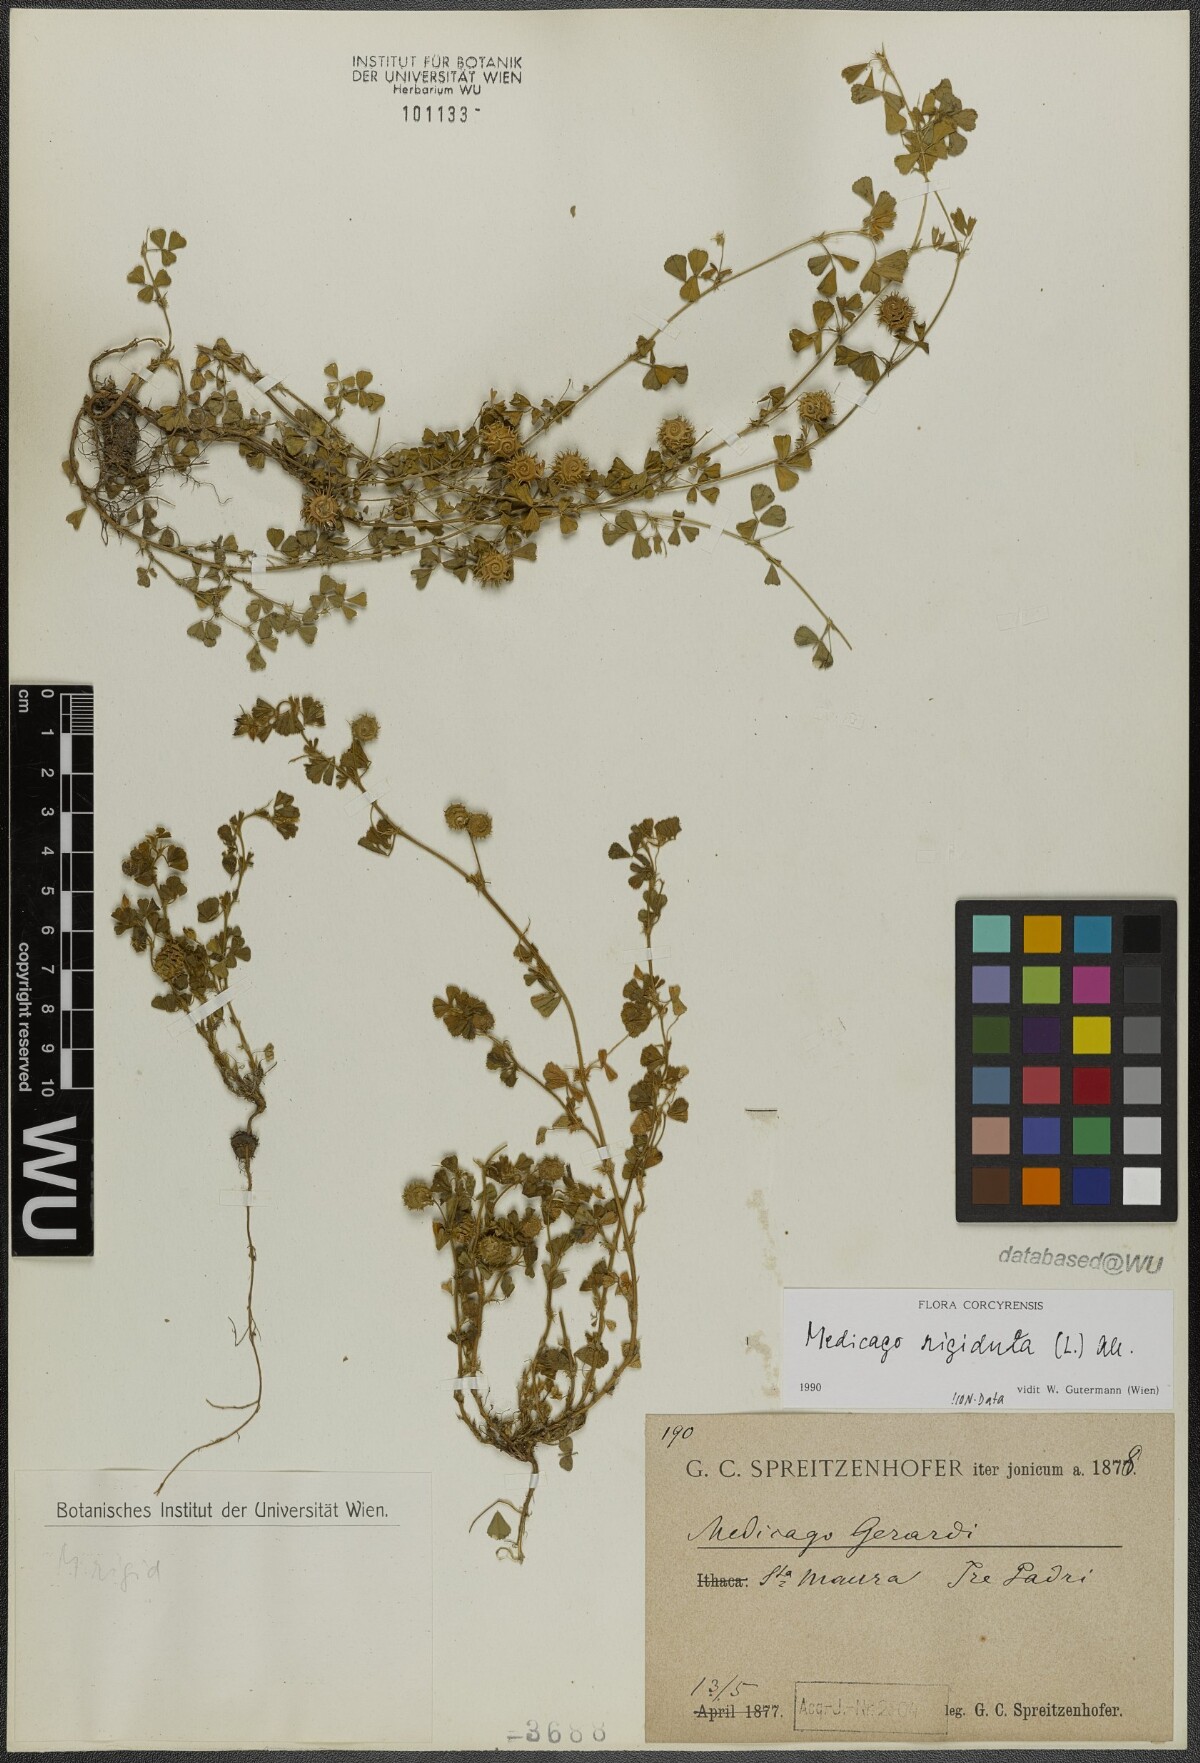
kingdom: Plantae
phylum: Tracheophyta
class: Magnoliopsida
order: Fabales
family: Fabaceae
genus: Medicago
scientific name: Medicago rigidula
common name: Tifton medic
